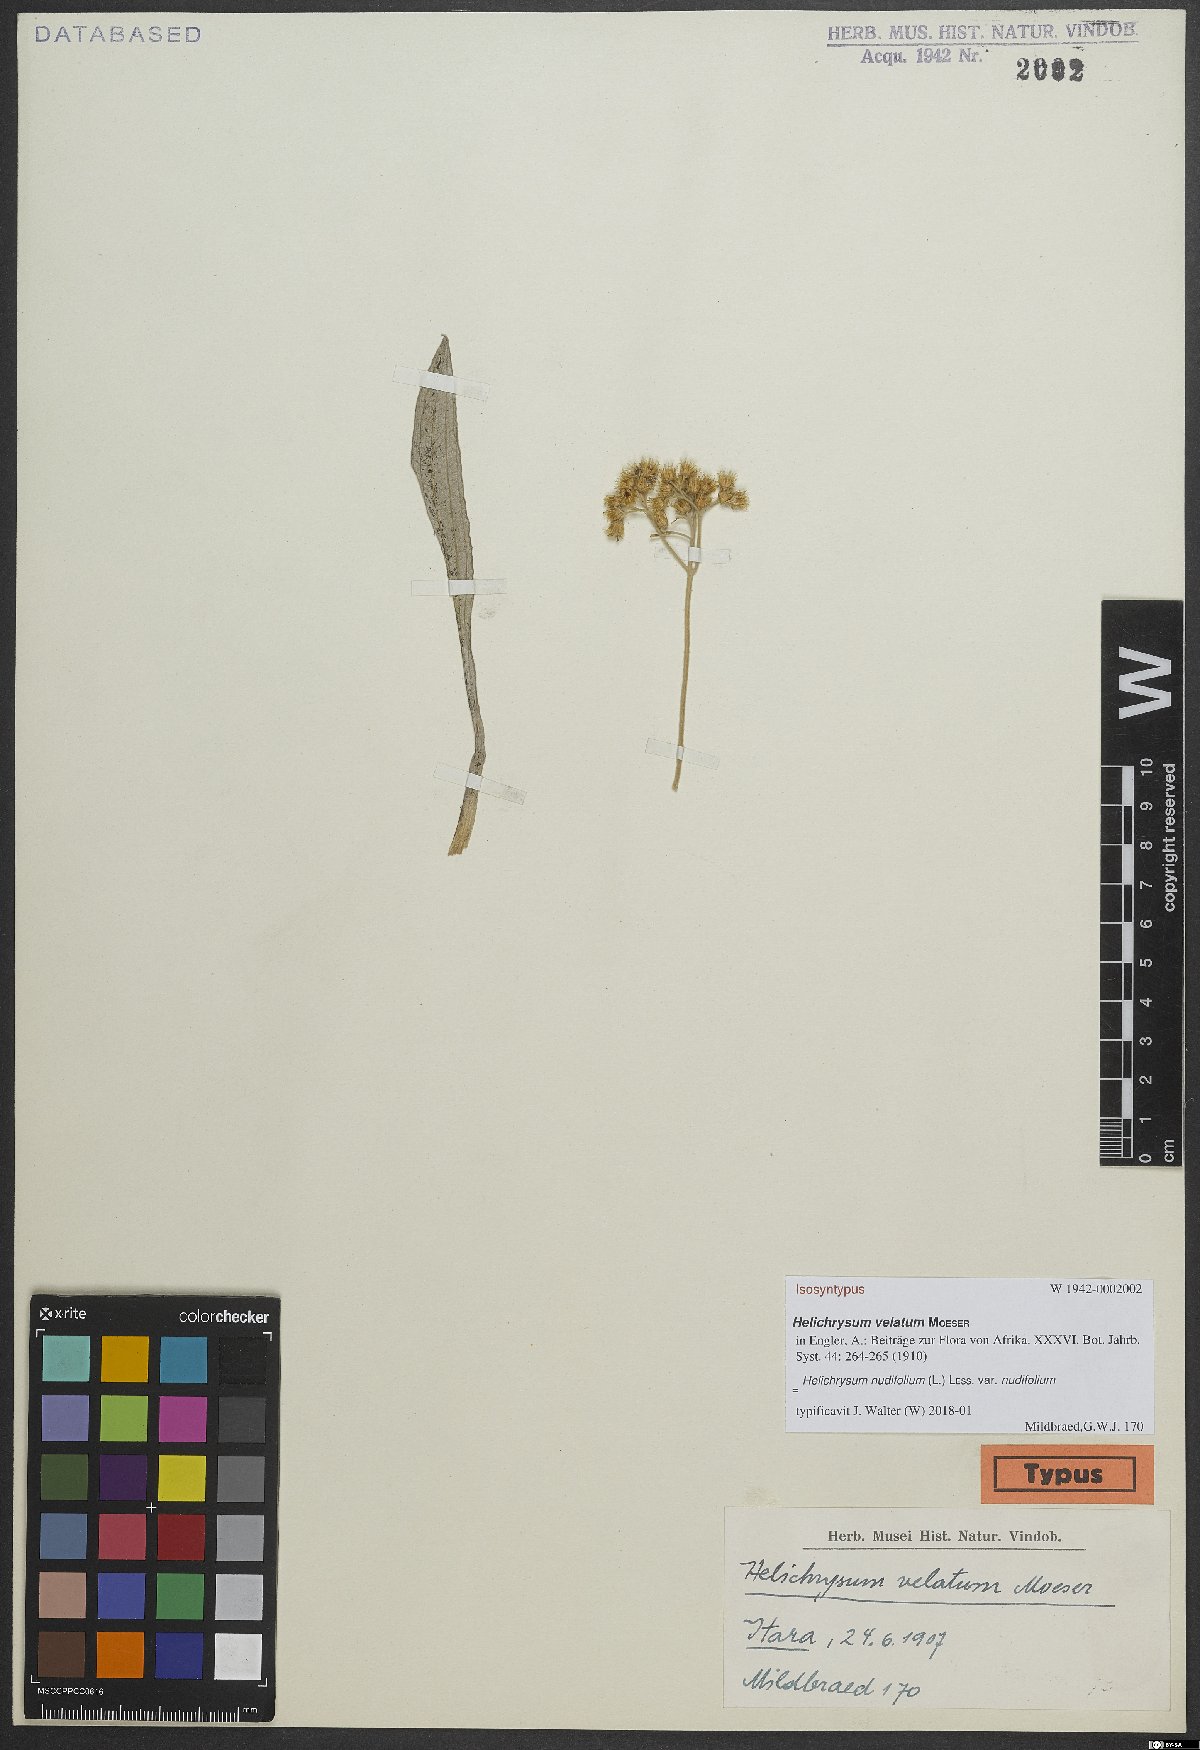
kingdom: Plantae
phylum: Tracheophyta
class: Magnoliopsida
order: Asterales
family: Asteraceae
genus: Helichrysum
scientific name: Helichrysum nudifolium
